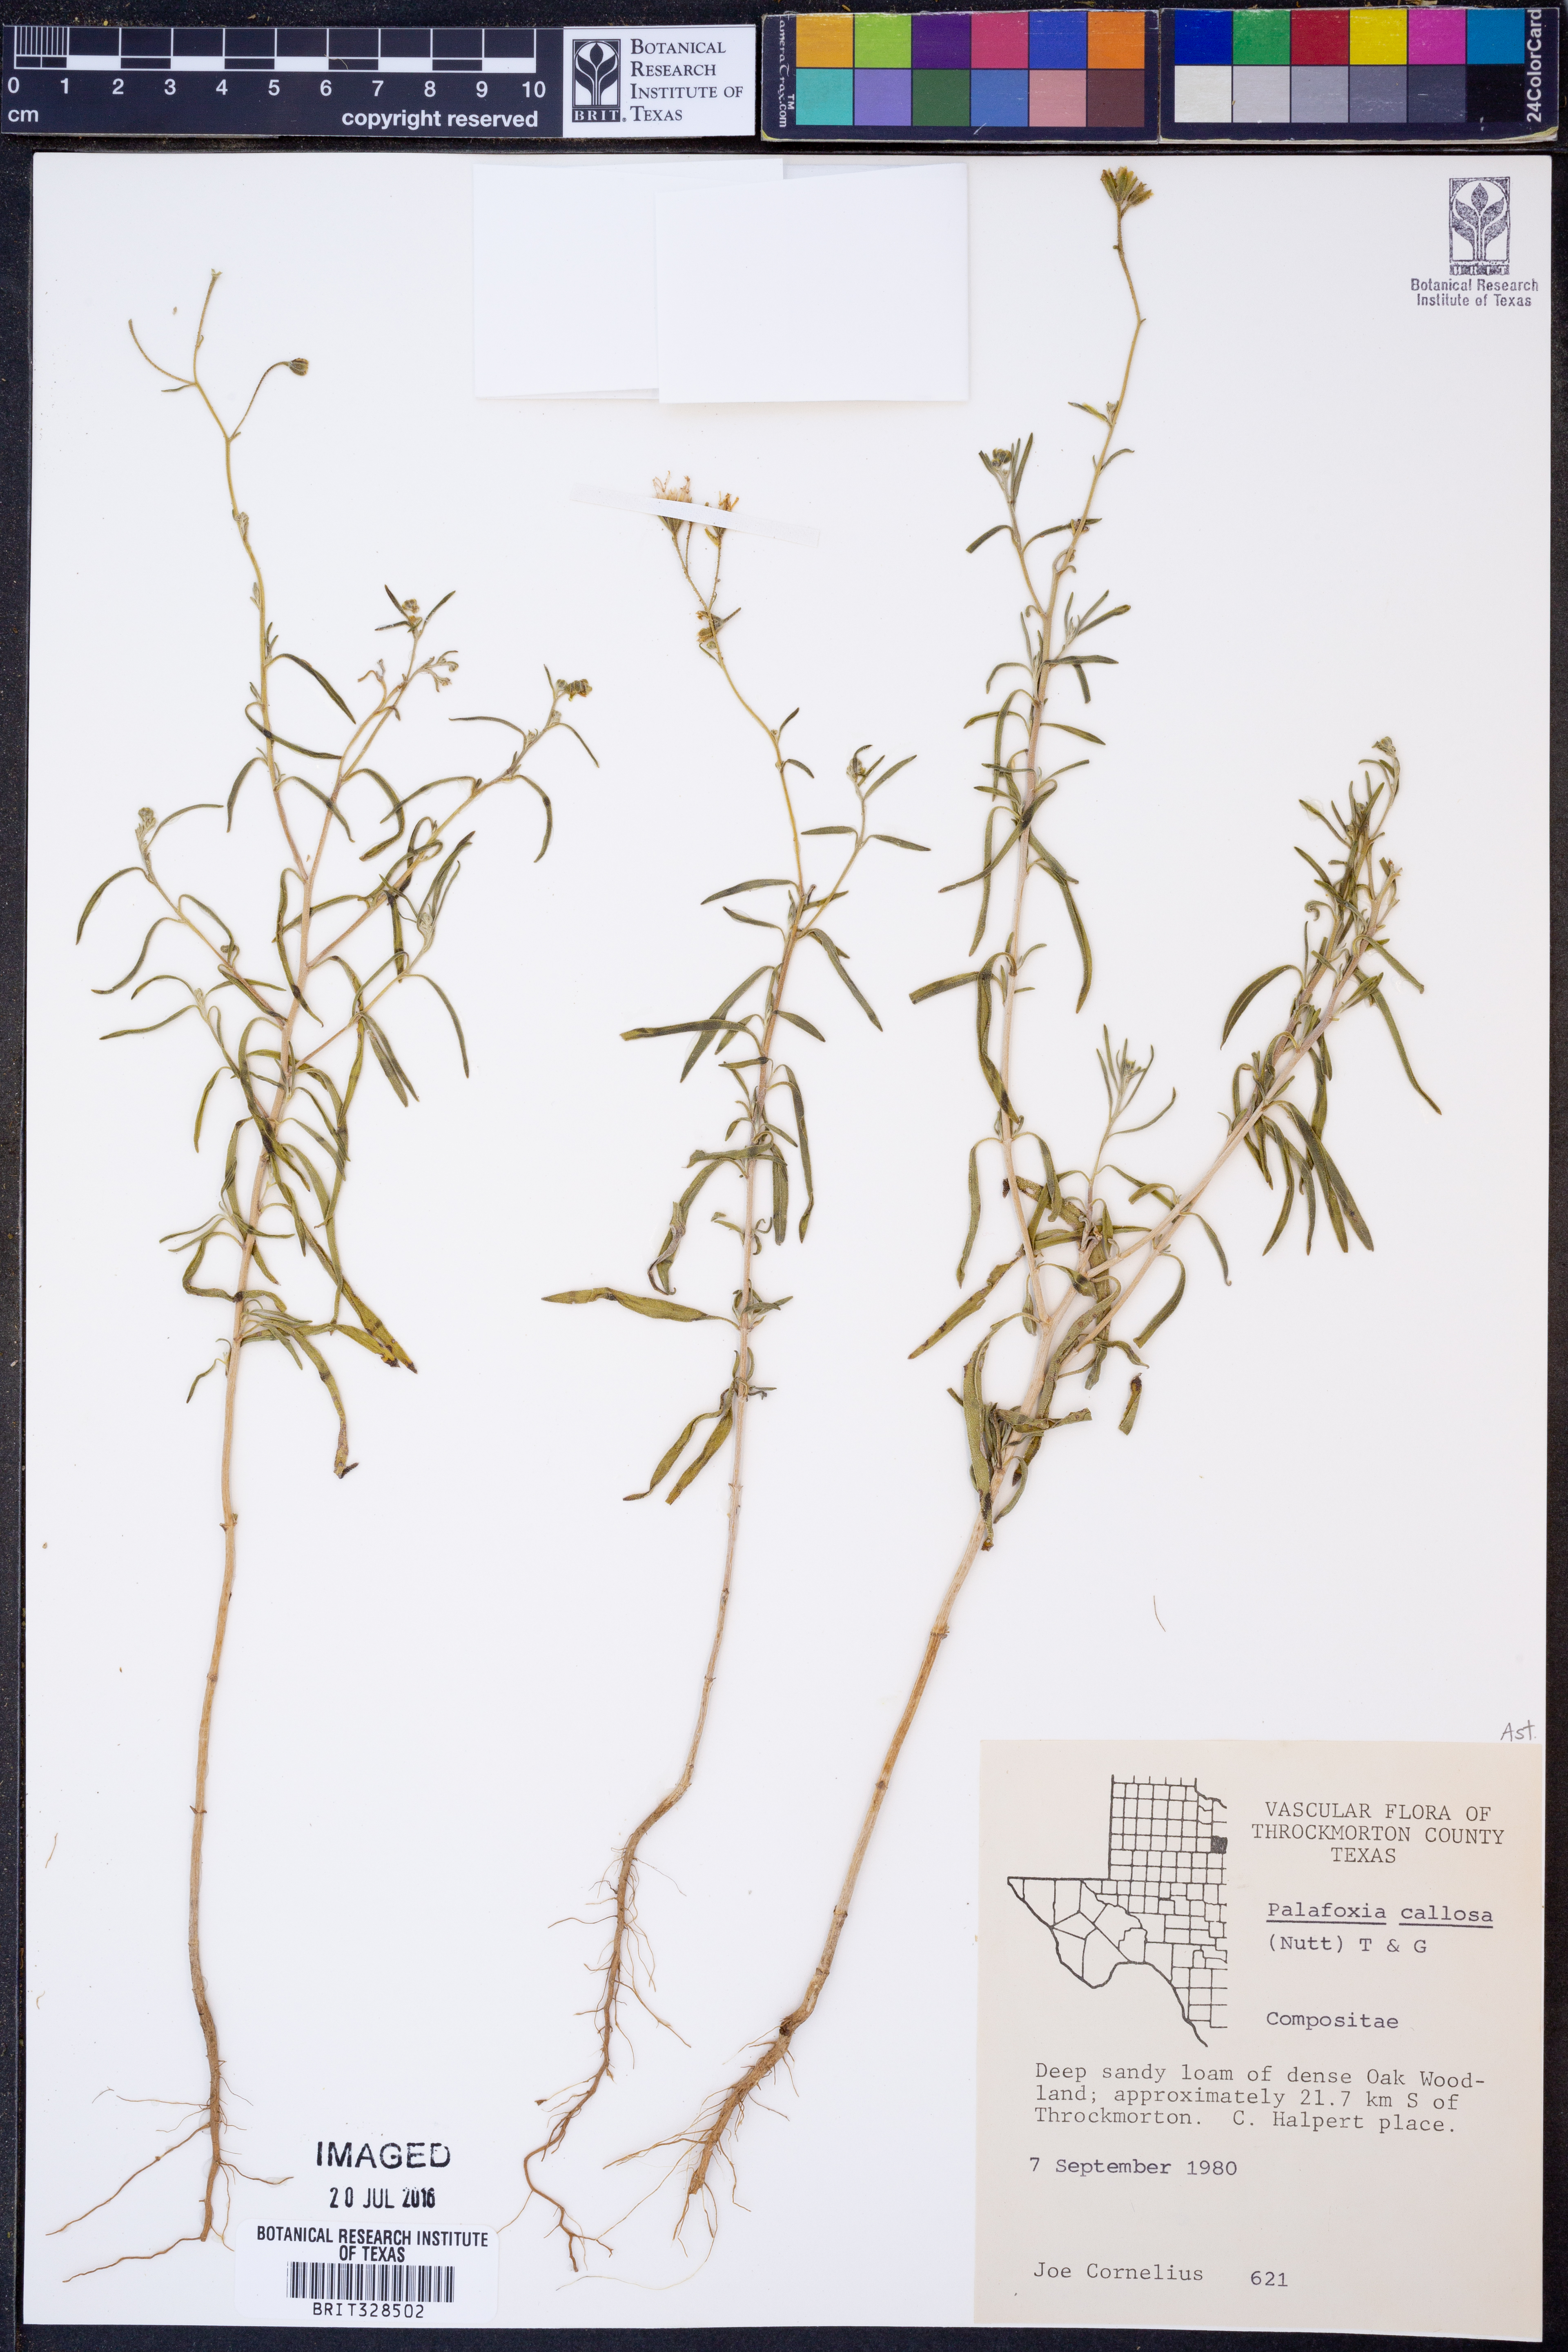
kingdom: Plantae
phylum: Tracheophyta
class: Magnoliopsida
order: Asterales
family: Asteraceae
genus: Palafoxia
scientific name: Palafoxia callosa
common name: Small palafox
